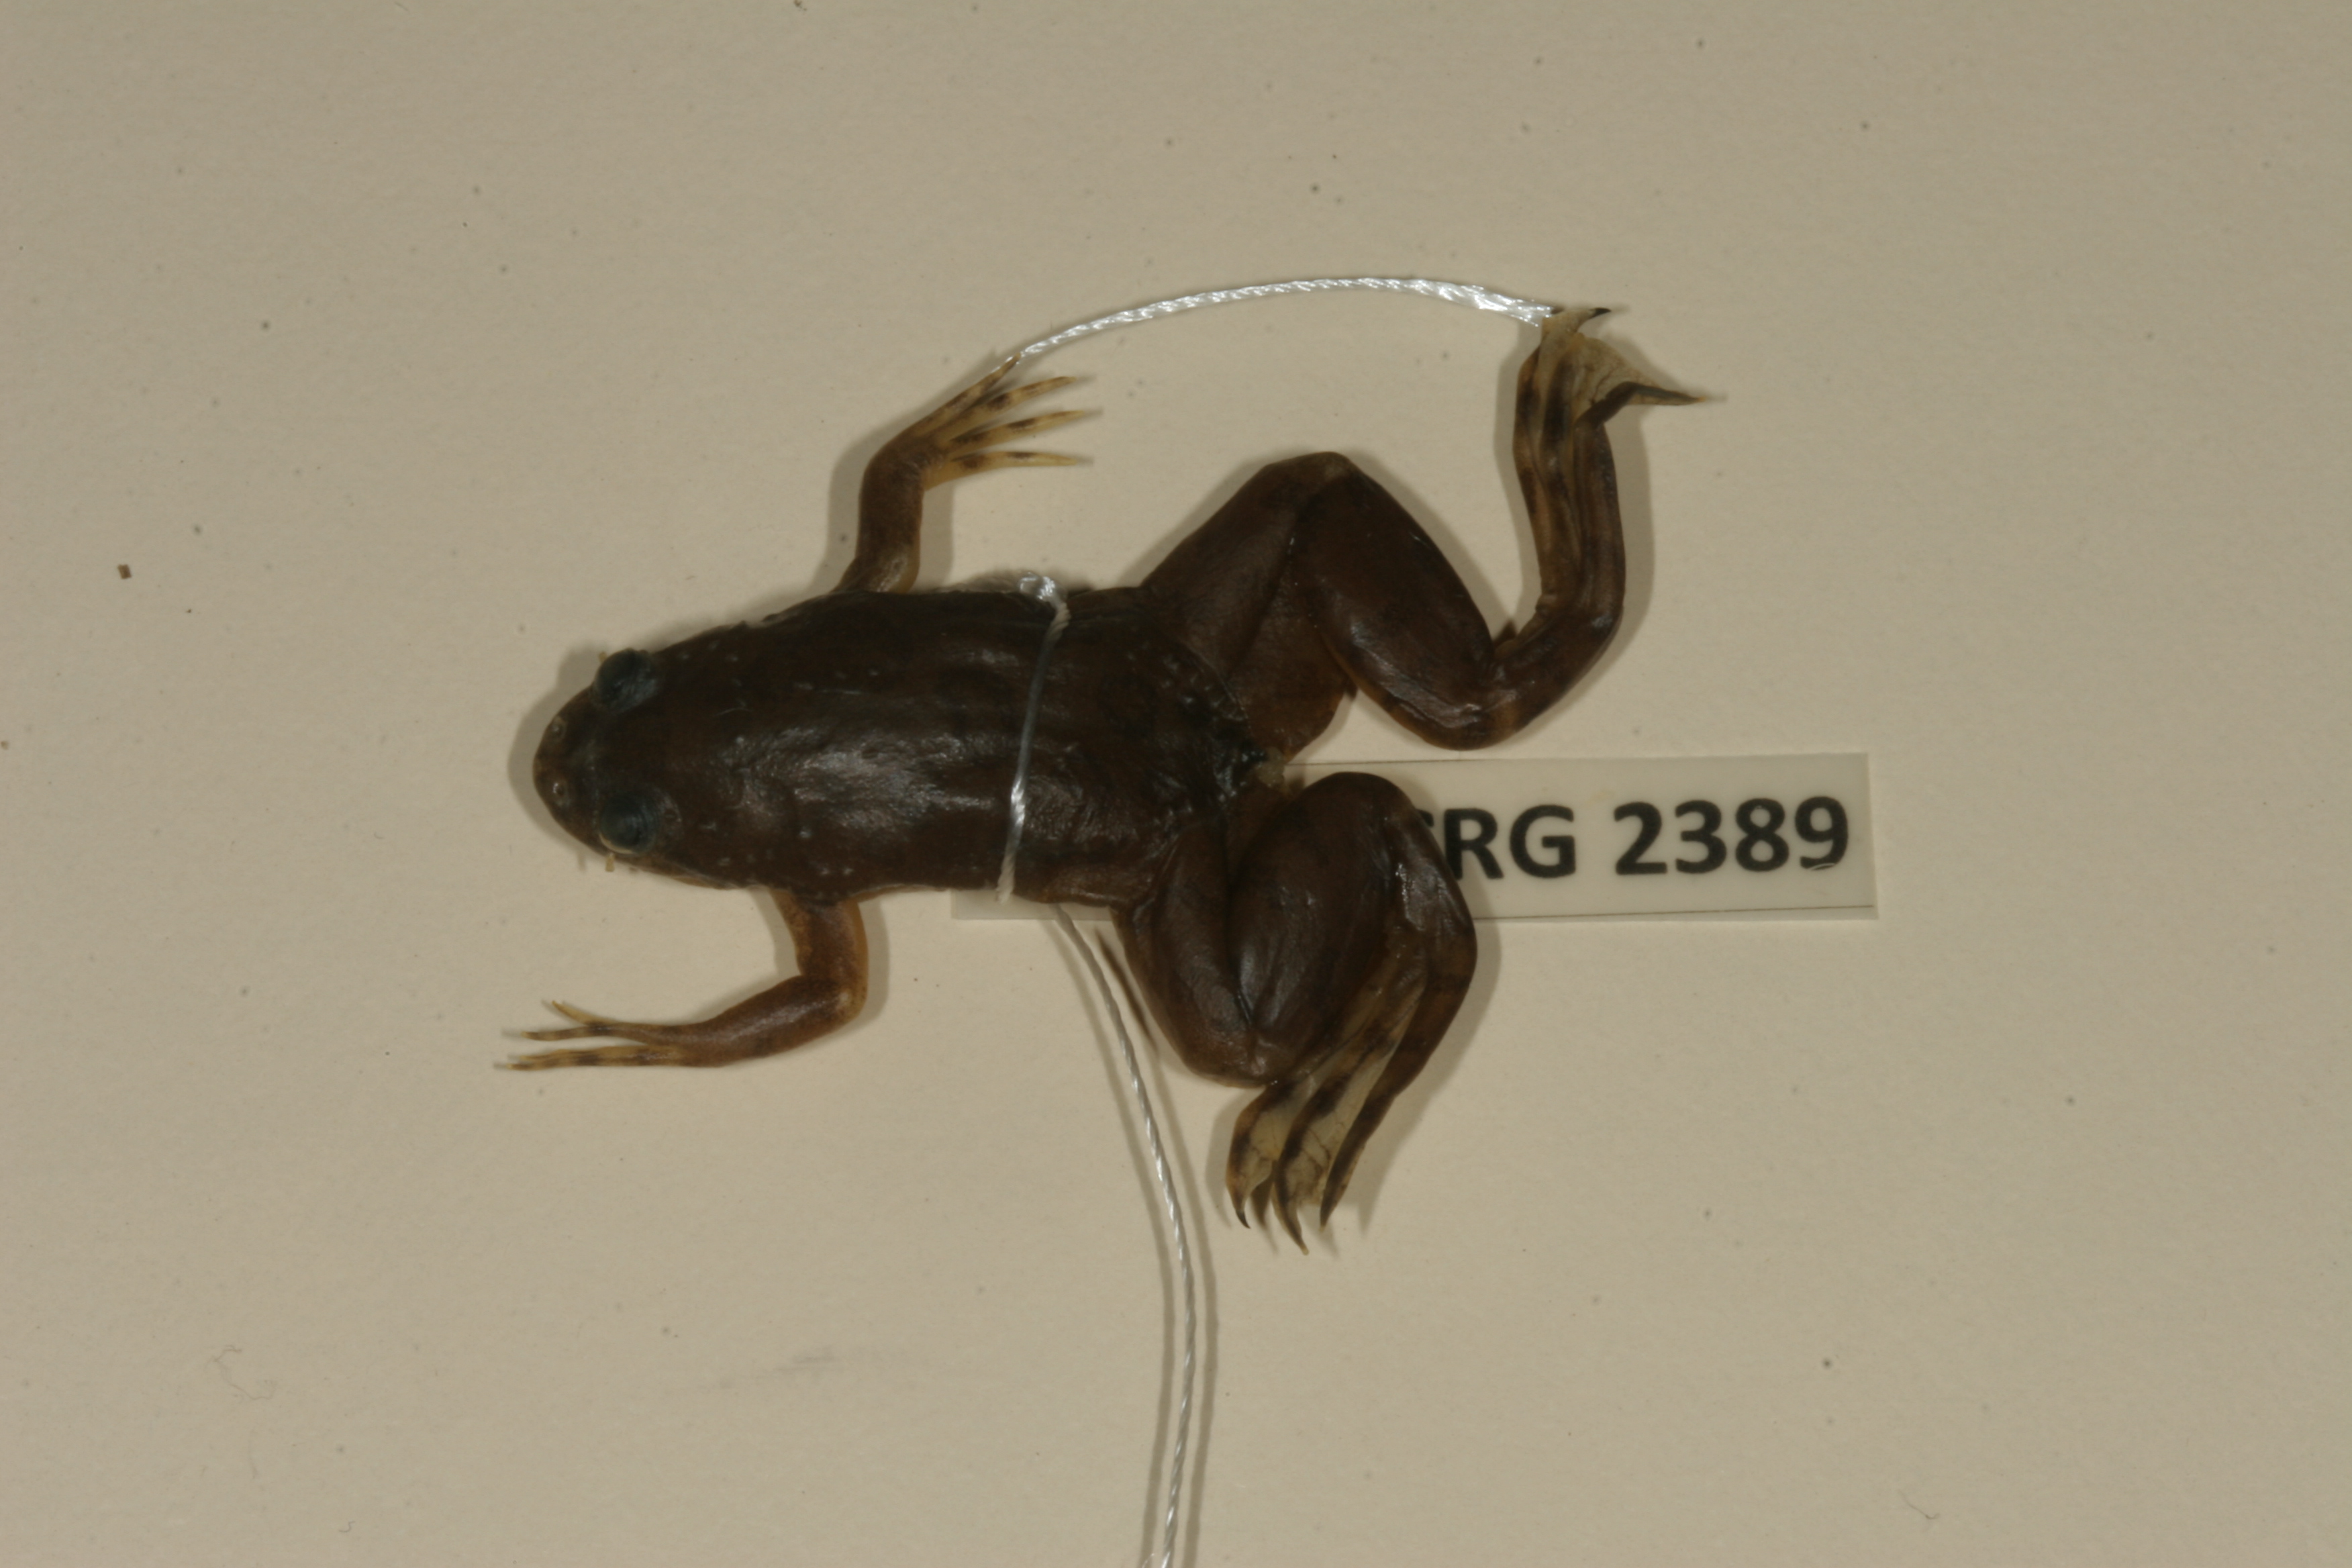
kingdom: Animalia
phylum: Chordata
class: Amphibia
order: Anura
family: Pipidae
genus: Xenopus
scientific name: Xenopus muelleri
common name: Muller's clawed frog
